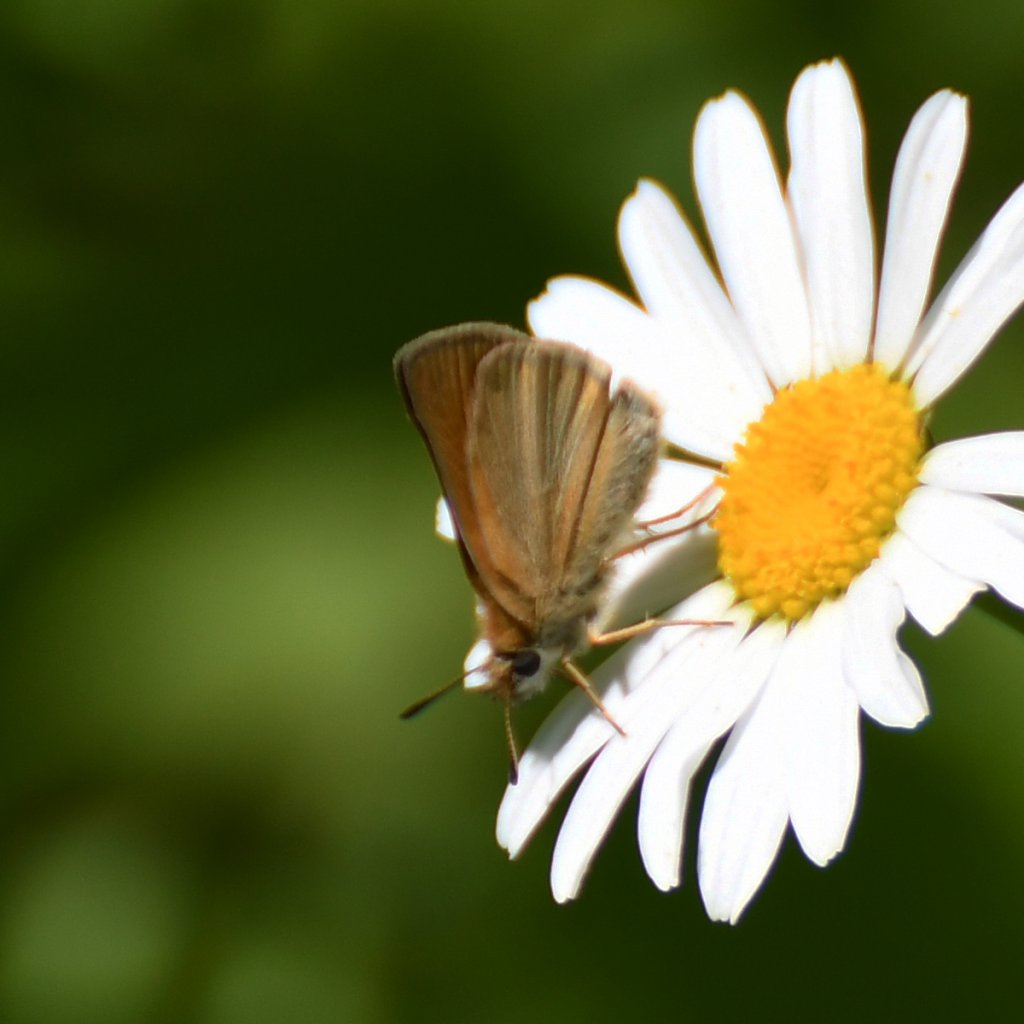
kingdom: Animalia
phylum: Arthropoda
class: Insecta
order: Lepidoptera
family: Hesperiidae
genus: Thymelicus
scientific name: Thymelicus lineola
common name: European Skipper
